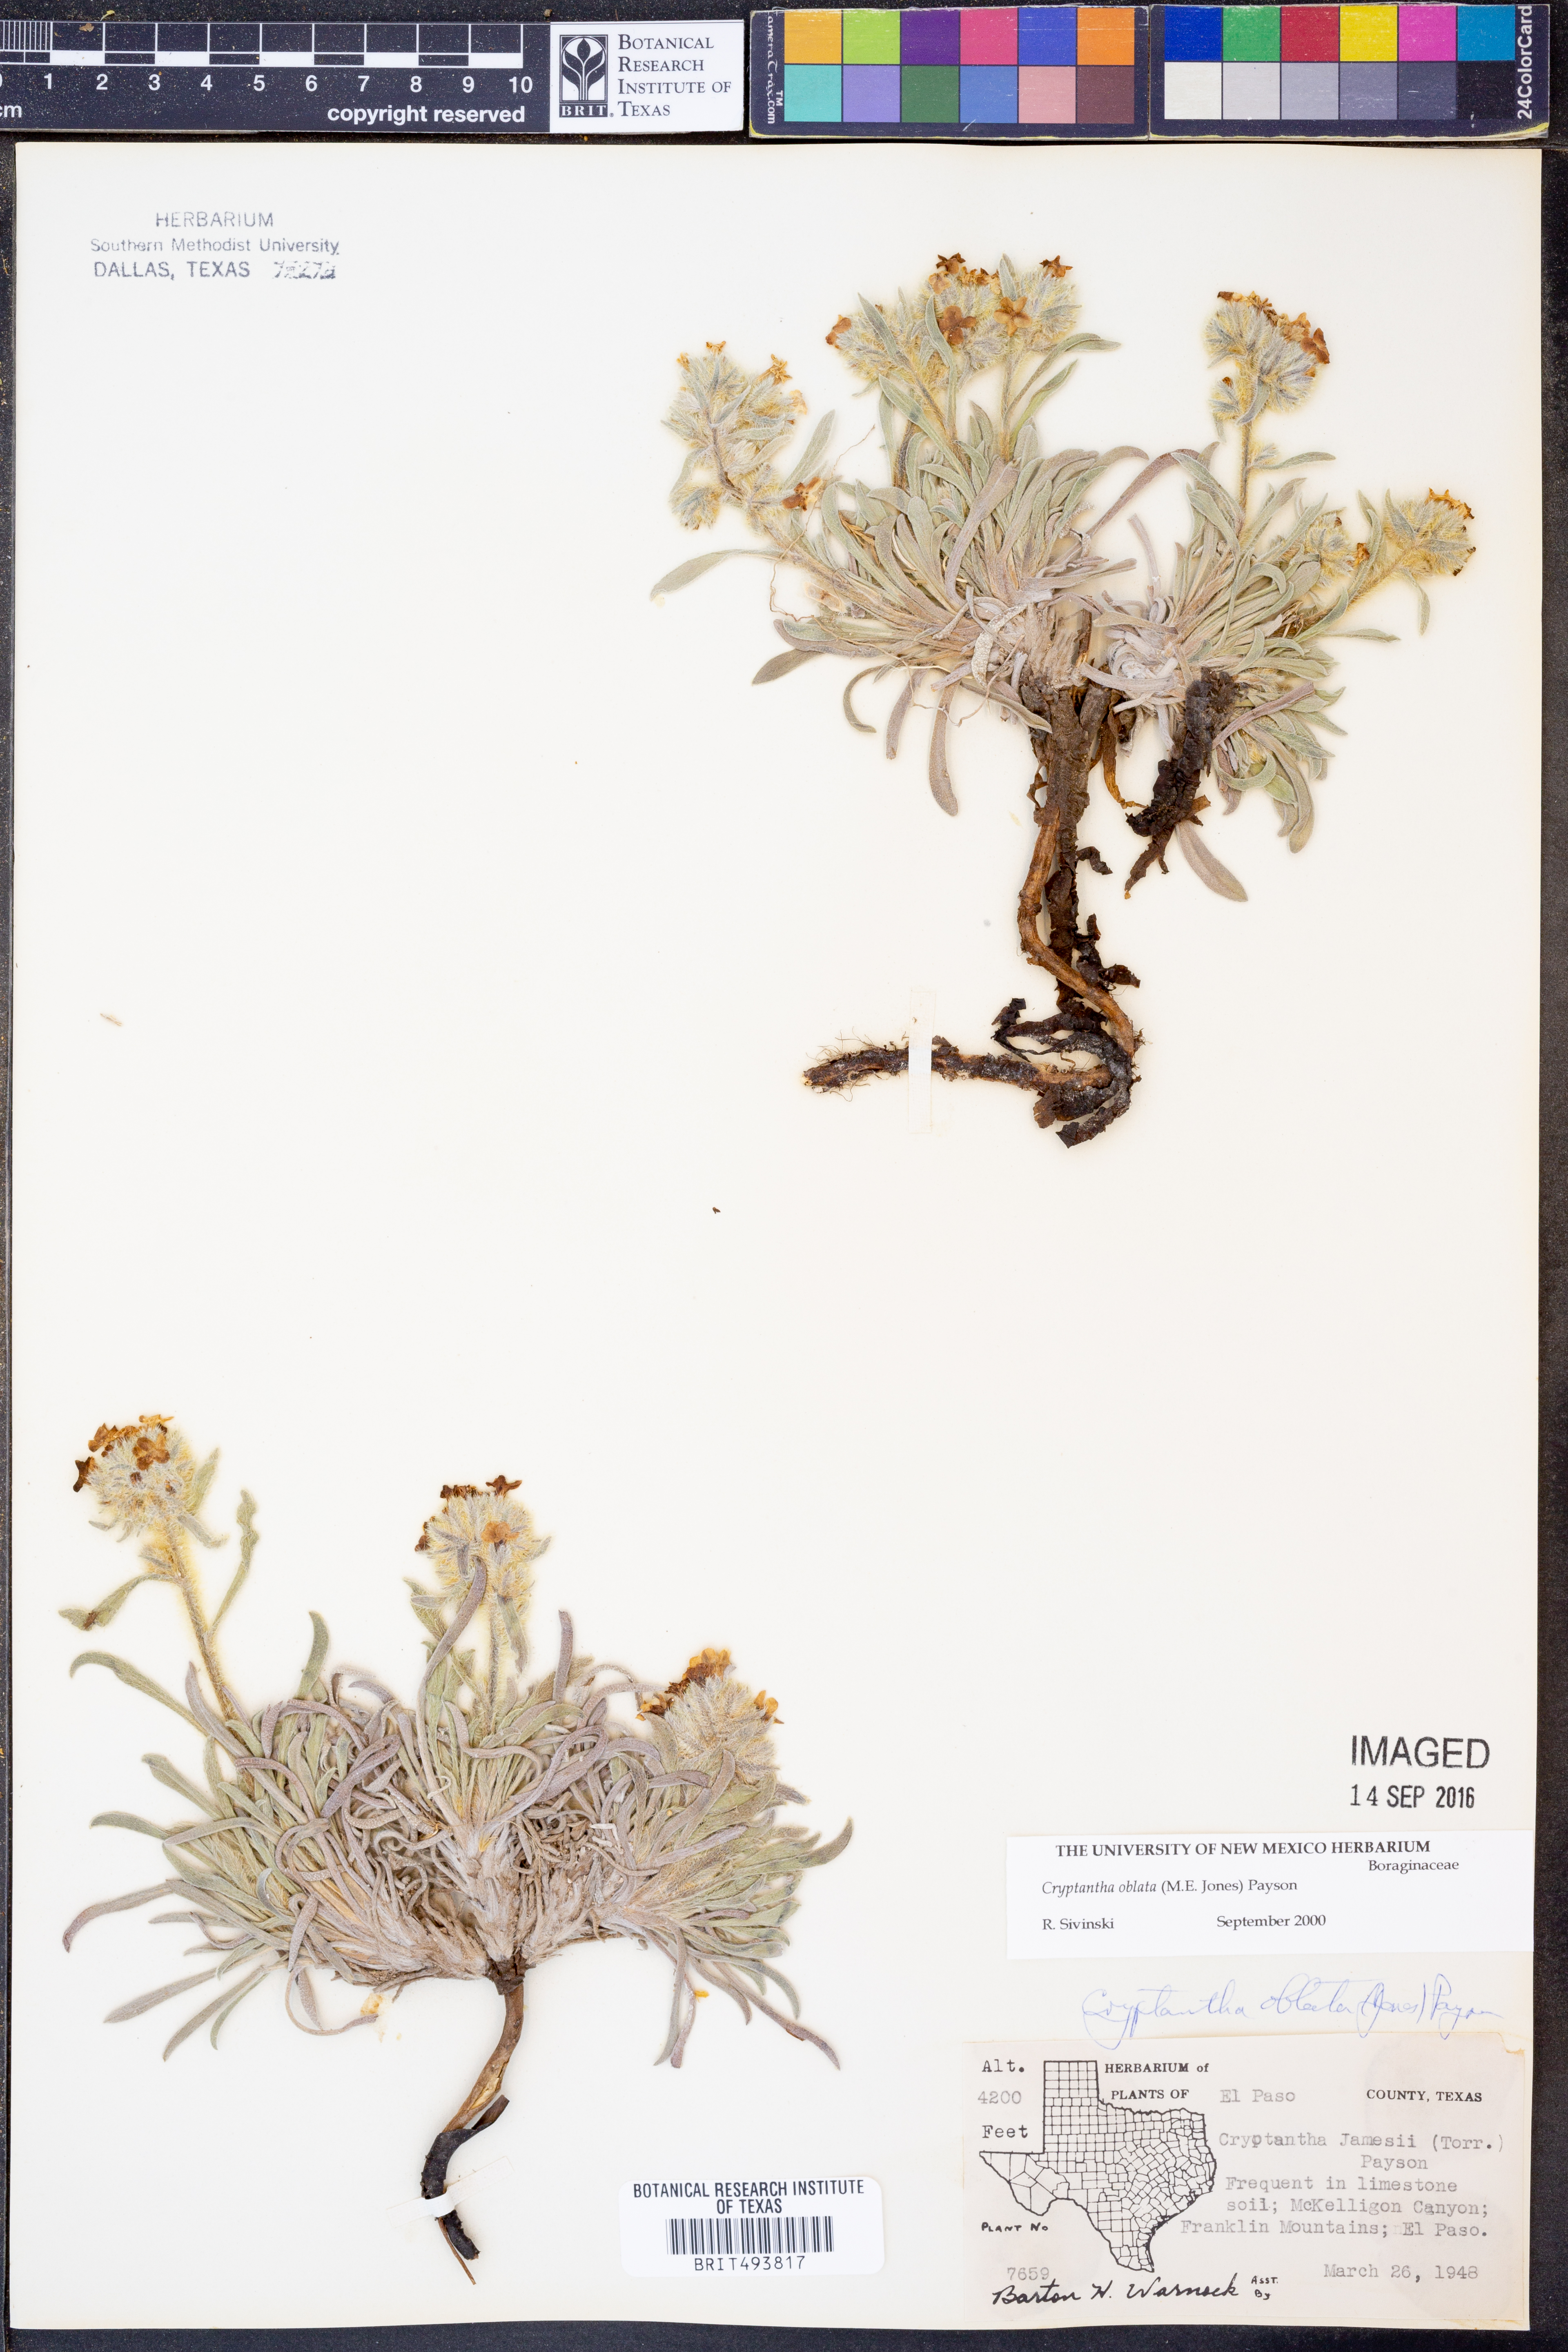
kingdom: Plantae
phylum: Tracheophyta
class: Magnoliopsida
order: Boraginales
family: Boraginaceae
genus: Oreocarya
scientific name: Oreocarya oblata
